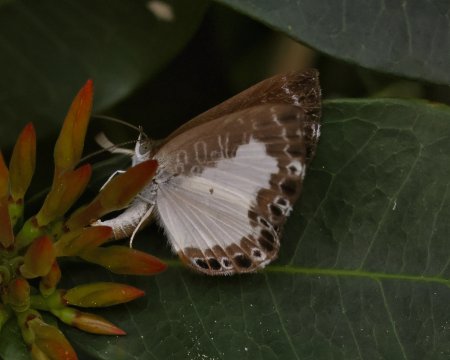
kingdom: Animalia
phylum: Arthropoda
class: Insecta
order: Lepidoptera
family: Riodinidae
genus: Juditha
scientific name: Juditha caucana
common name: Molpe Metalmark
